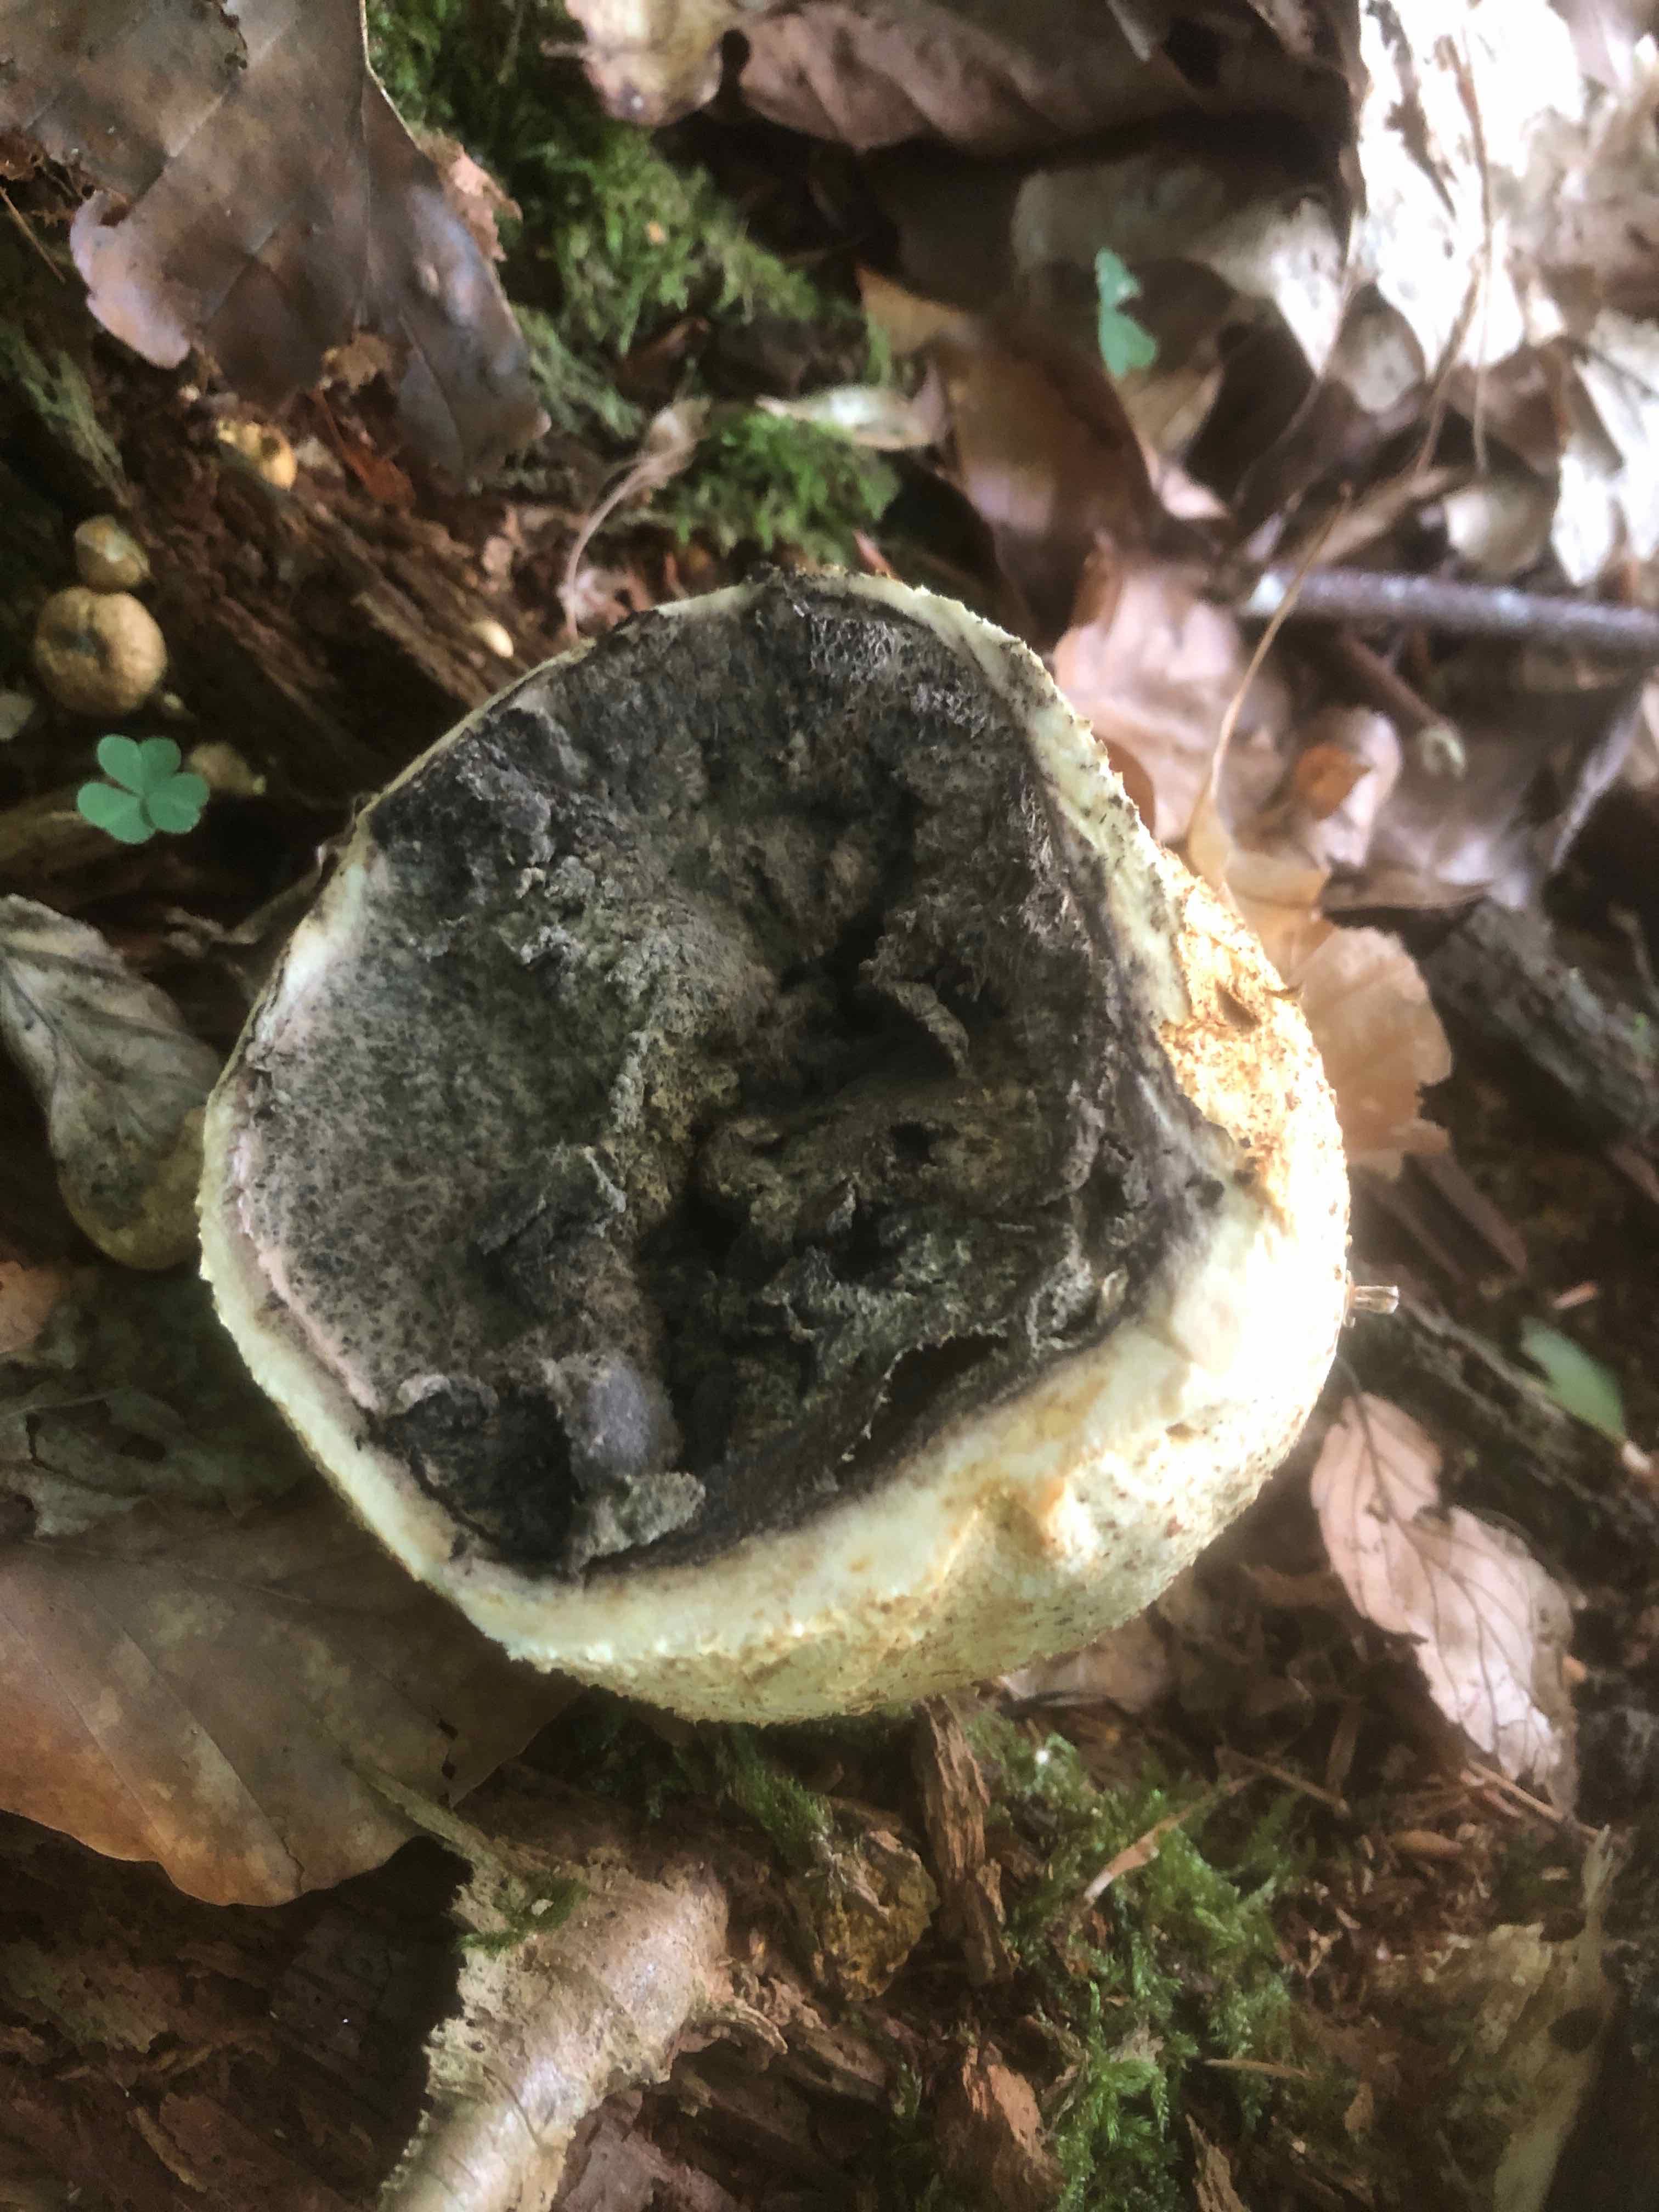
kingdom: Fungi
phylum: Basidiomycota
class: Agaricomycetes
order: Boletales
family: Sclerodermataceae
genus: Scleroderma
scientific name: Scleroderma citrinum
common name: almindelig bruskbold
